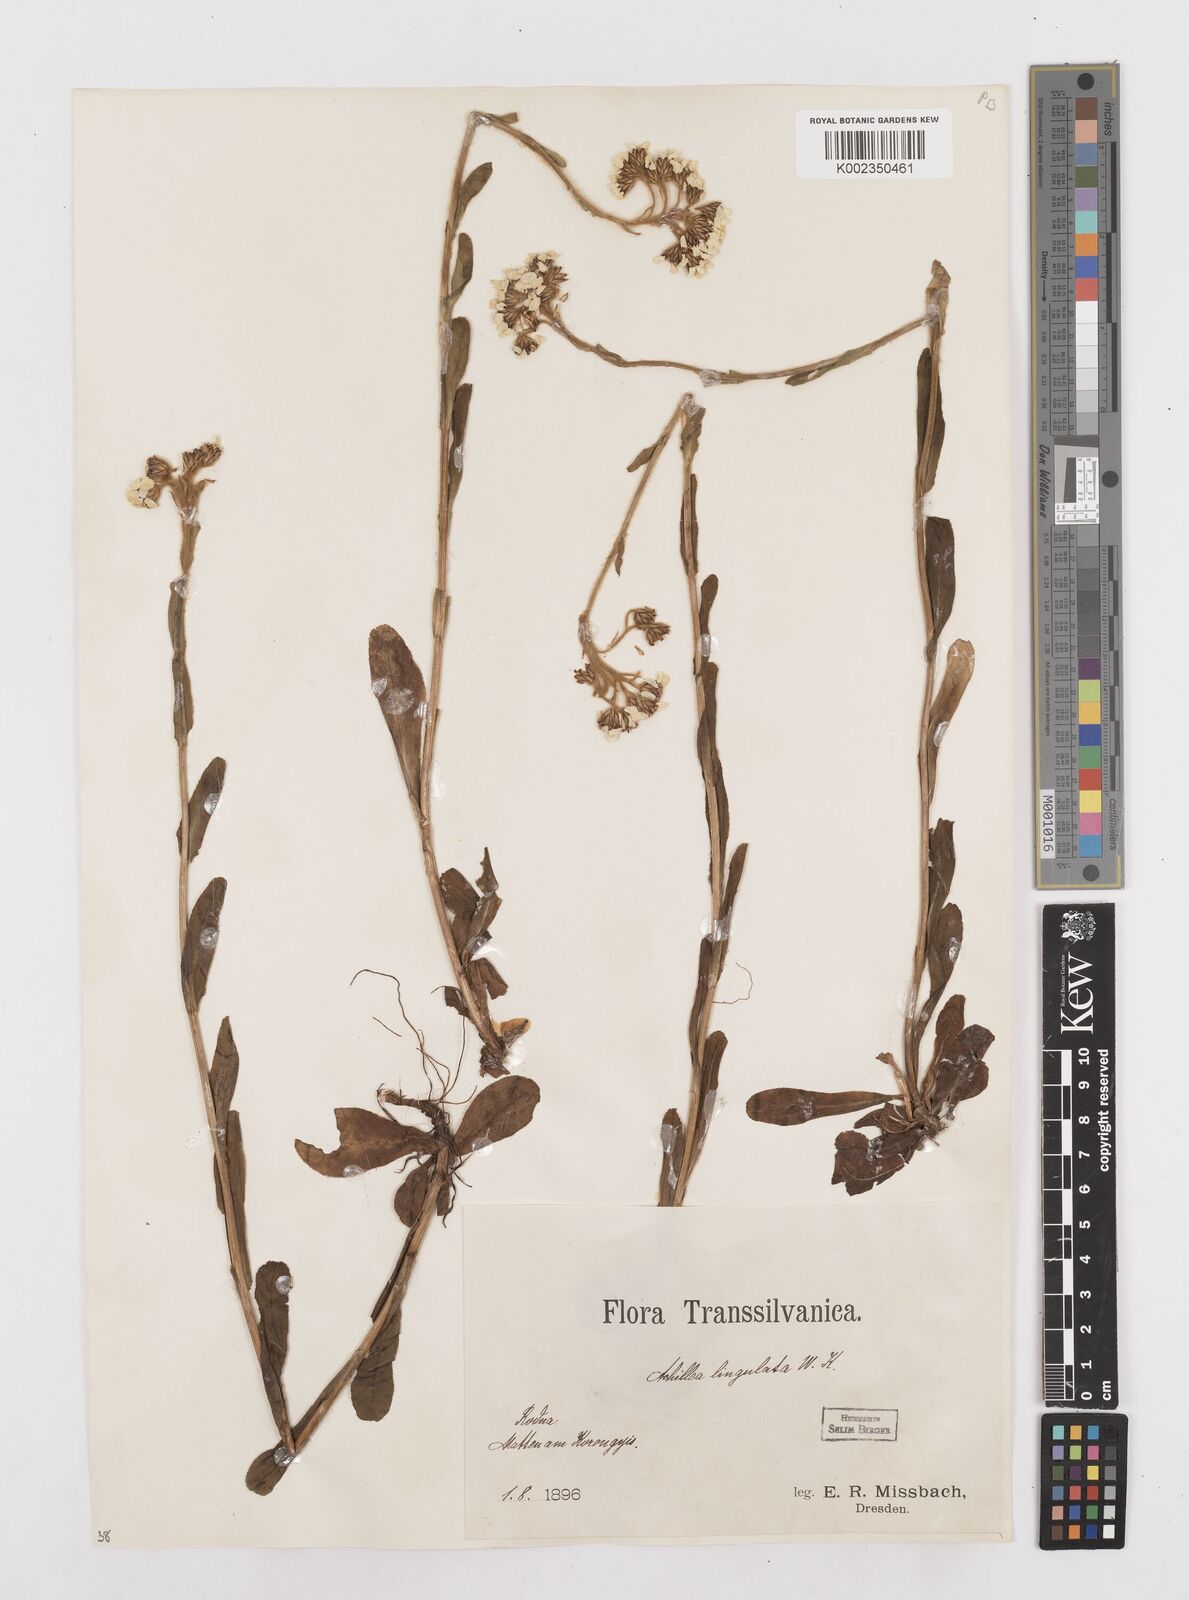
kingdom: Plantae
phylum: Tracheophyta
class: Magnoliopsida
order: Asterales
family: Asteraceae
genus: Achillea
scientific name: Achillea lingulata
